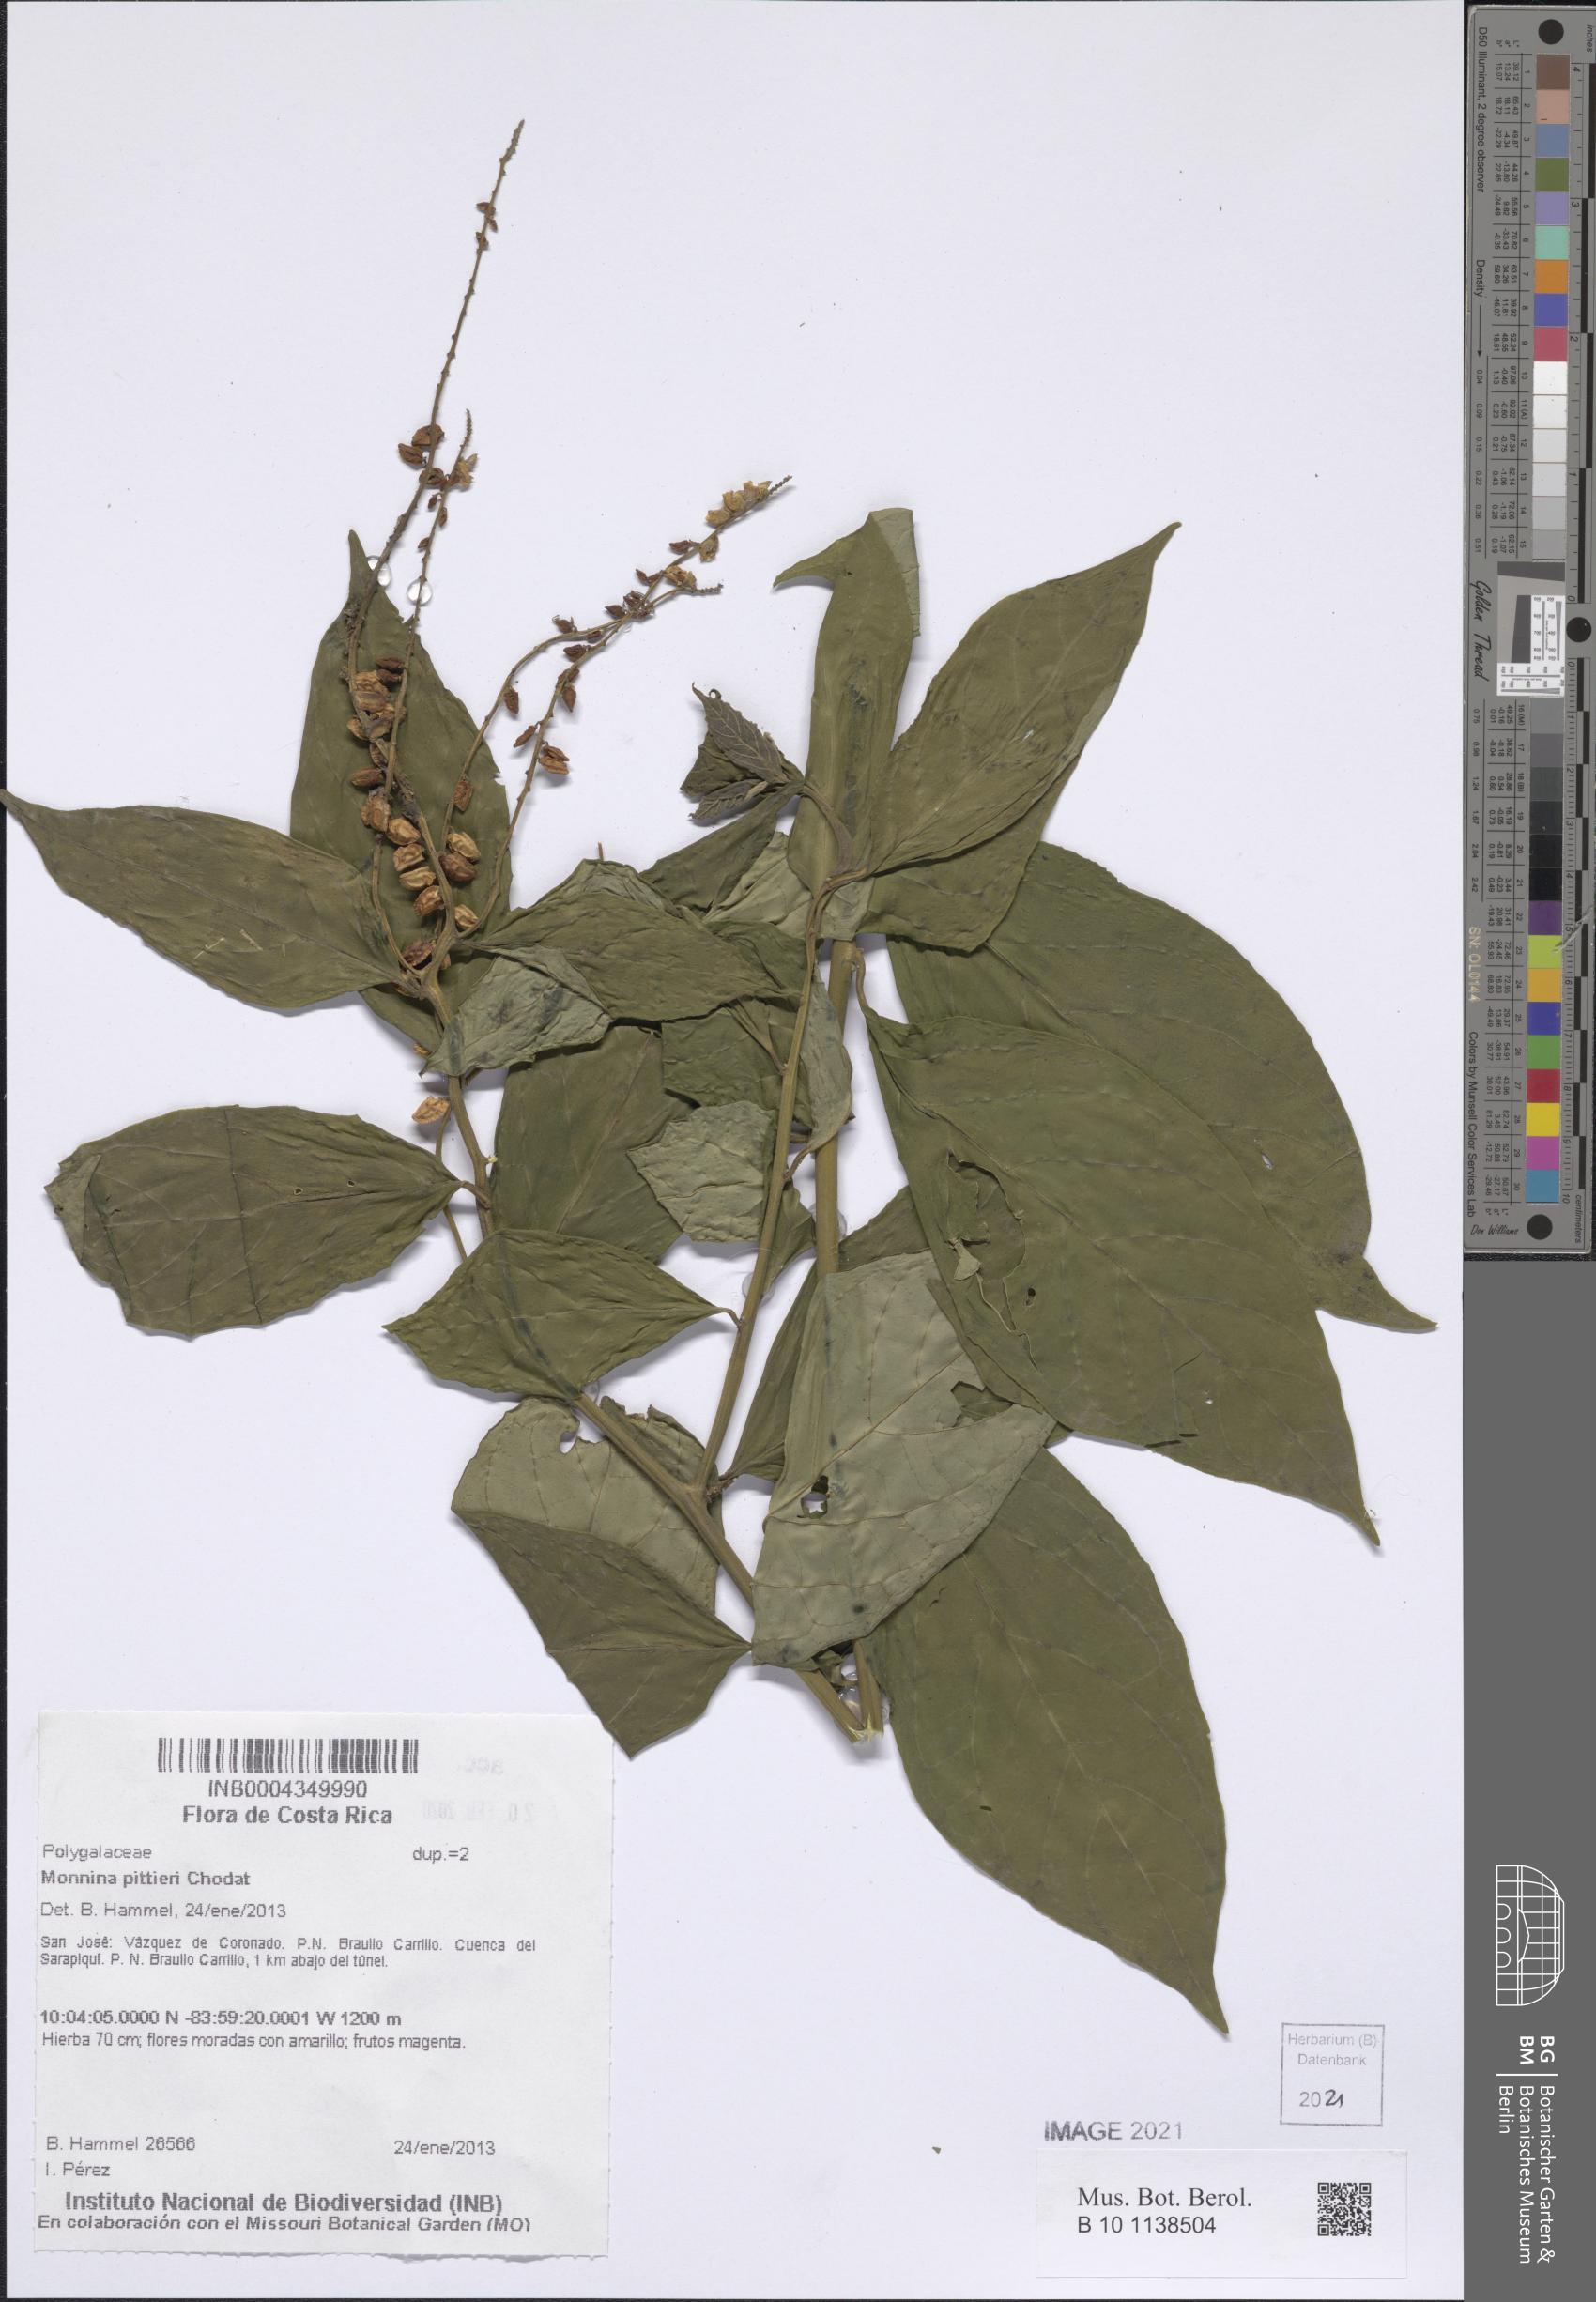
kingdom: Plantae
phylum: Tracheophyta
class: Magnoliopsida
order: Fabales
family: Polygalaceae
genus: Monnina
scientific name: Monnina pittieri
